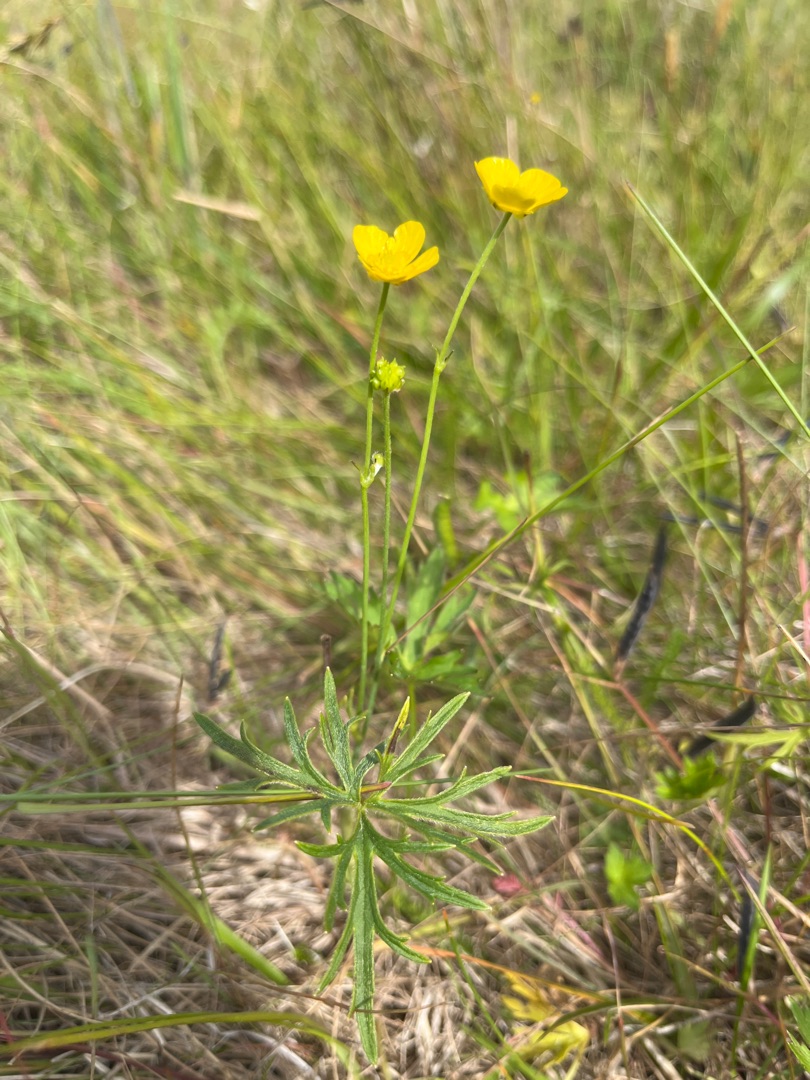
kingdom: Plantae
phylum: Tracheophyta
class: Magnoliopsida
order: Ranunculales
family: Ranunculaceae
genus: Ranunculus
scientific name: Ranunculus acris
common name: Bidende ranunkel
